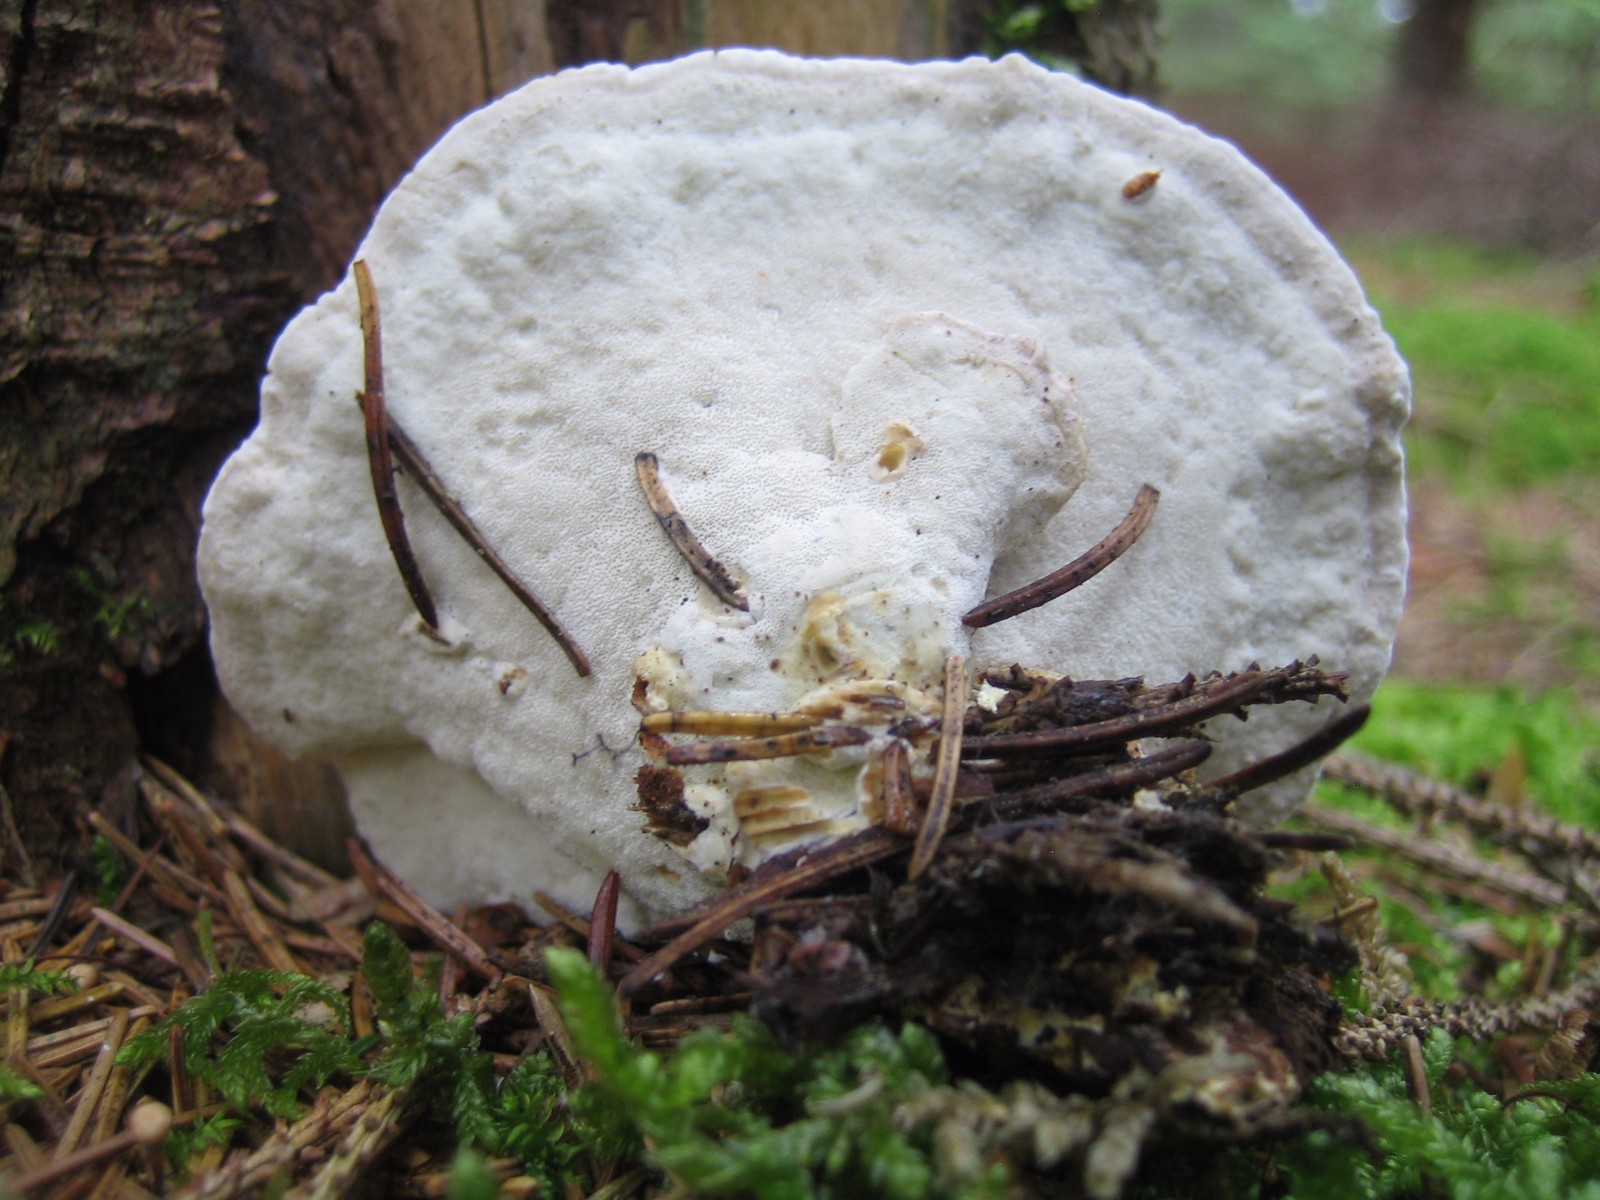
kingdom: Fungi
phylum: Basidiomycota
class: Agaricomycetes
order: Polyporales
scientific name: Polyporales
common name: poresvampordenen
